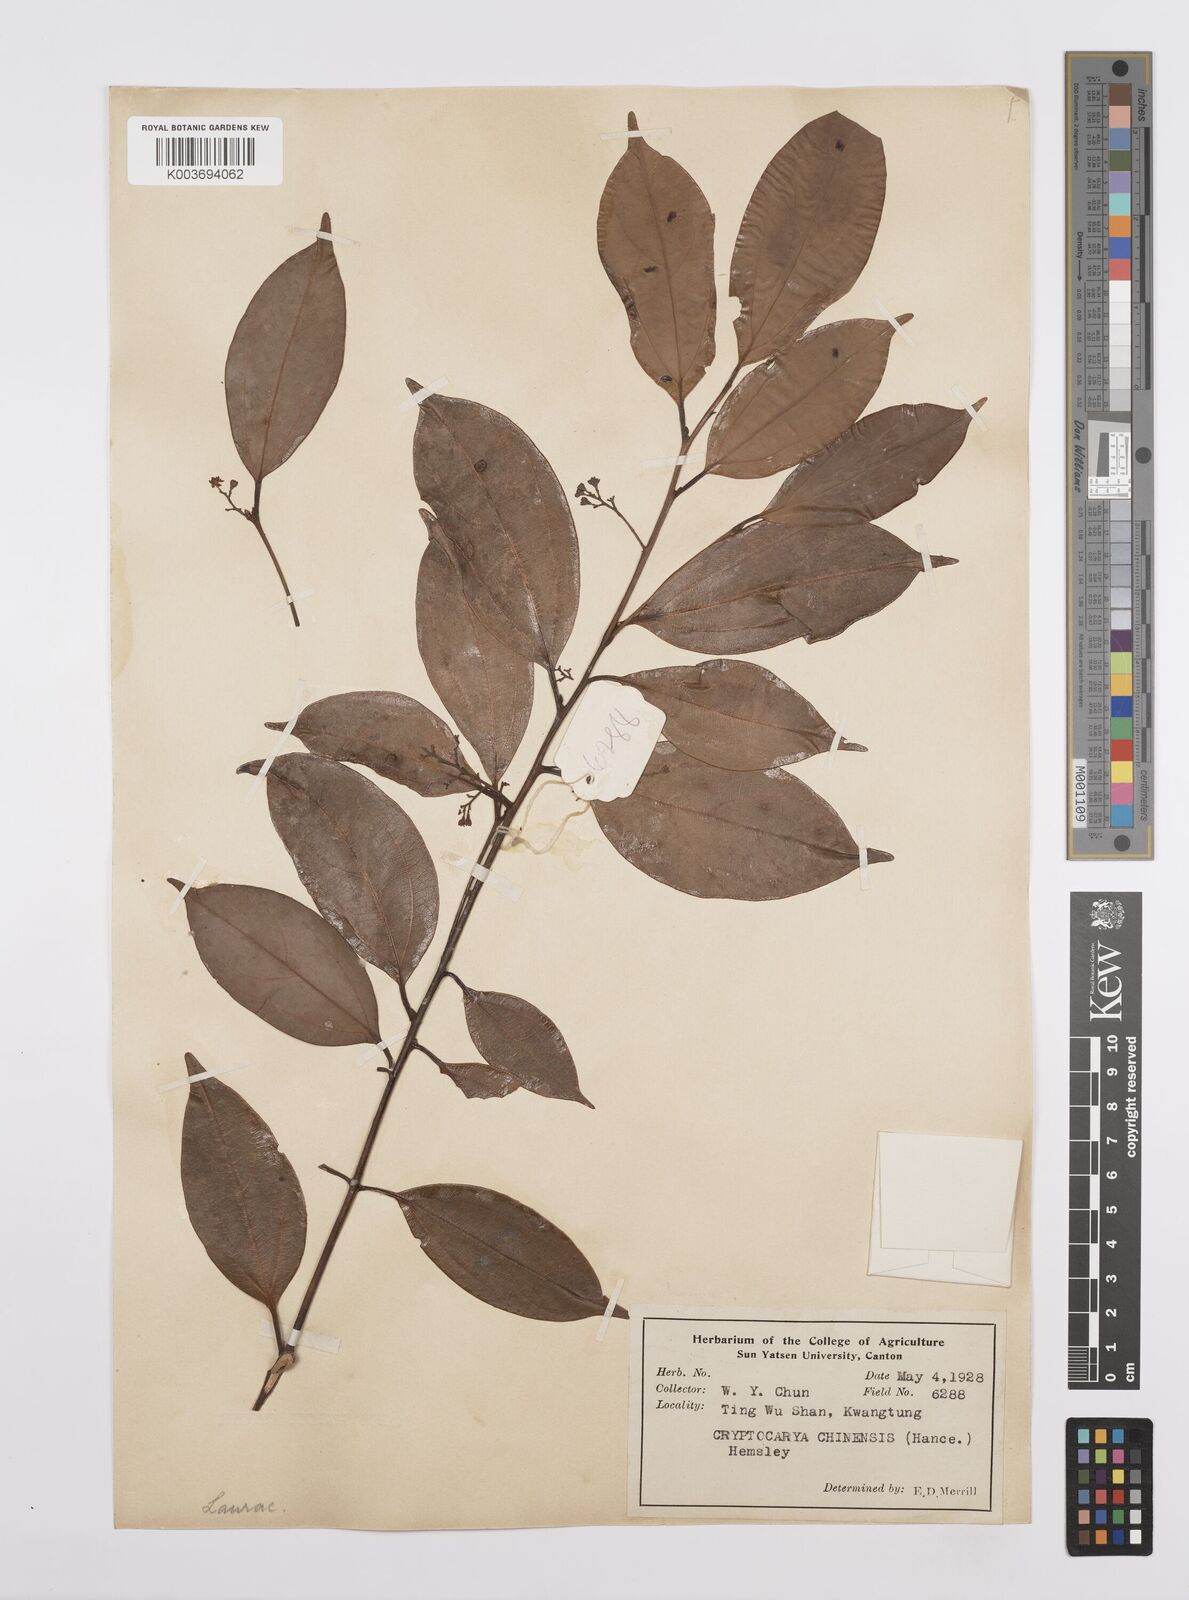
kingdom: Plantae
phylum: Tracheophyta
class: Magnoliopsida
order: Laurales
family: Lauraceae
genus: Cryptocarya
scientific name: Cryptocarya chinensis
